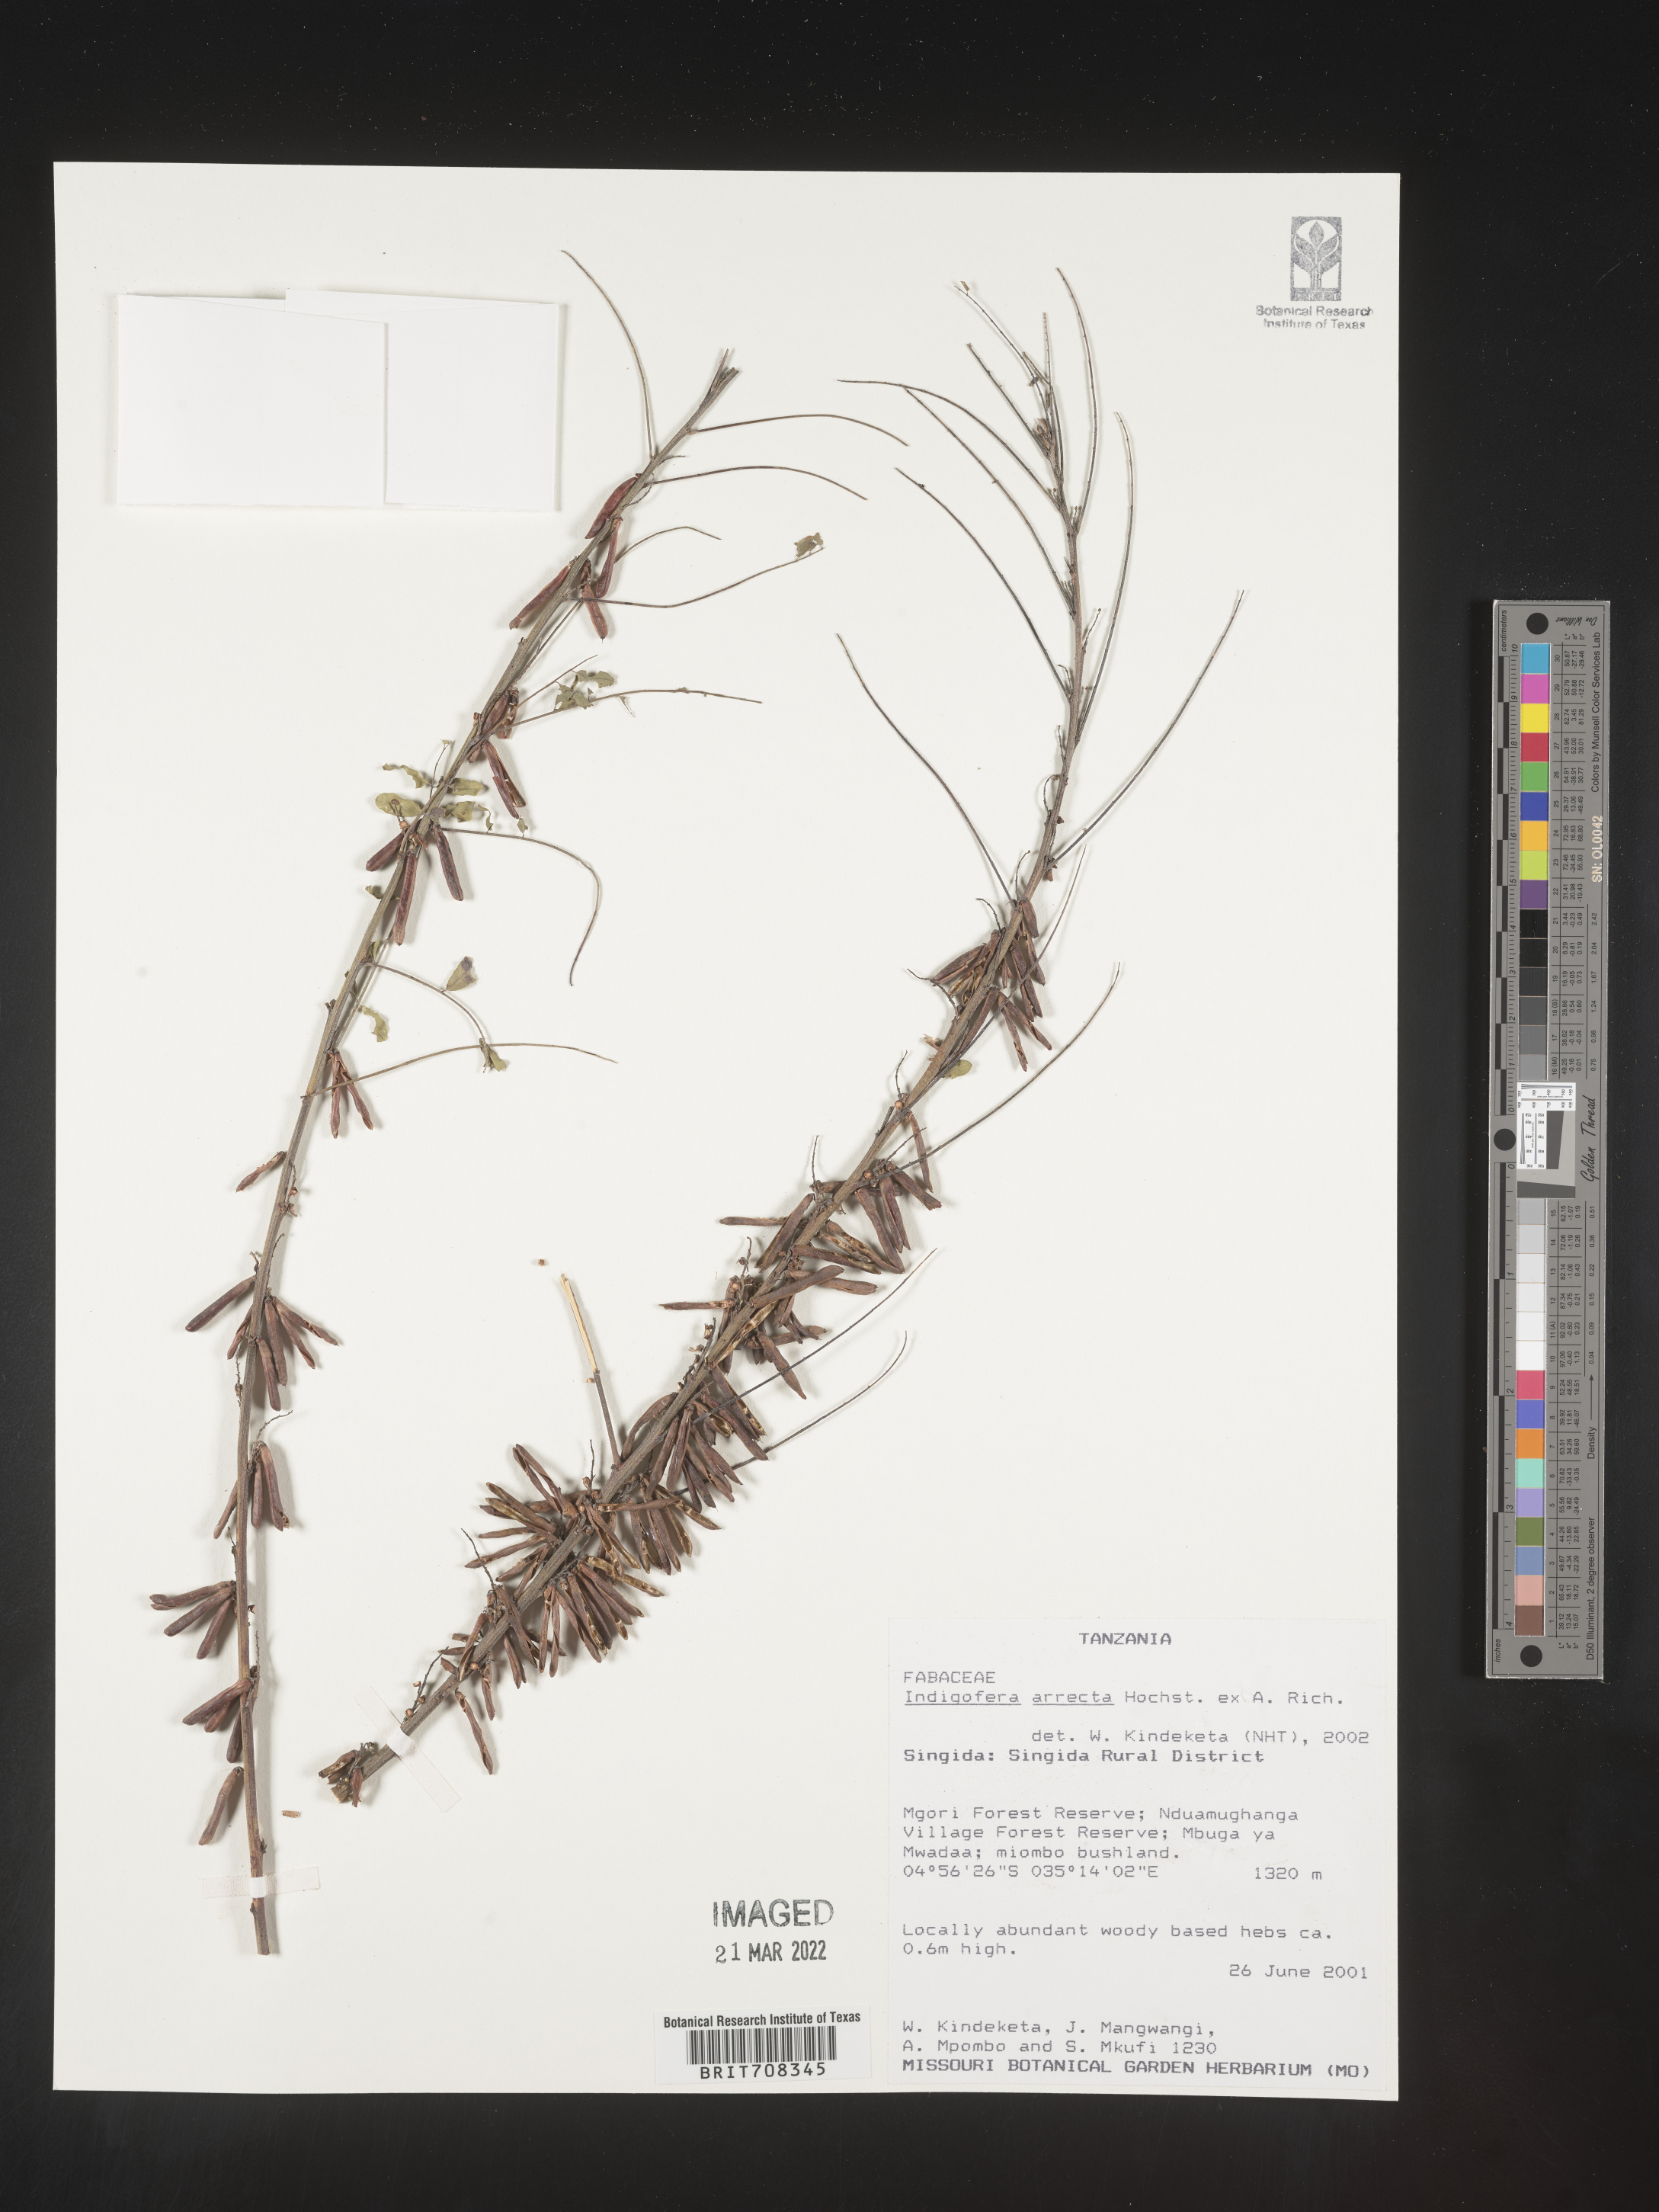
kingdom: Plantae
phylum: Tracheophyta
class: Magnoliopsida
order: Fabales
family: Fabaceae
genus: Indigofera
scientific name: Indigofera
